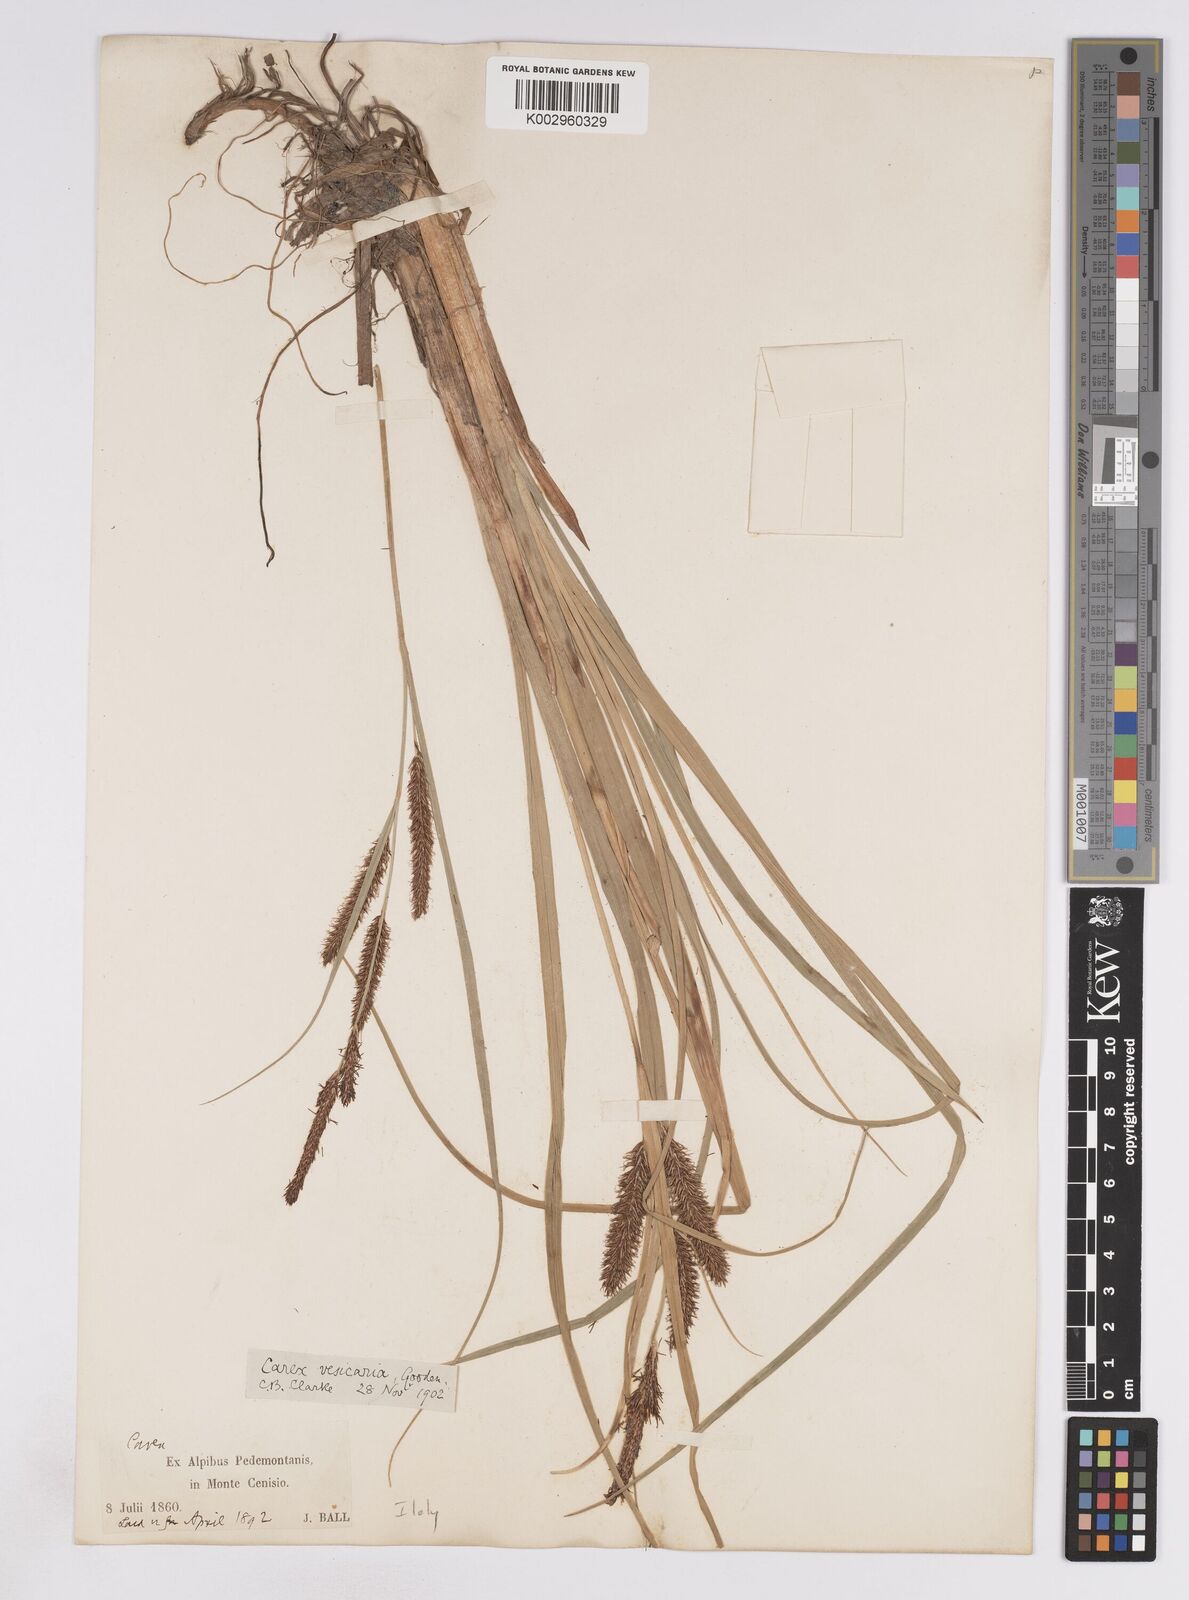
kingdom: Plantae
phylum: Tracheophyta
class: Liliopsida
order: Poales
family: Cyperaceae
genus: Carex
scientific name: Carex vesicaria
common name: Bladder-sedge
